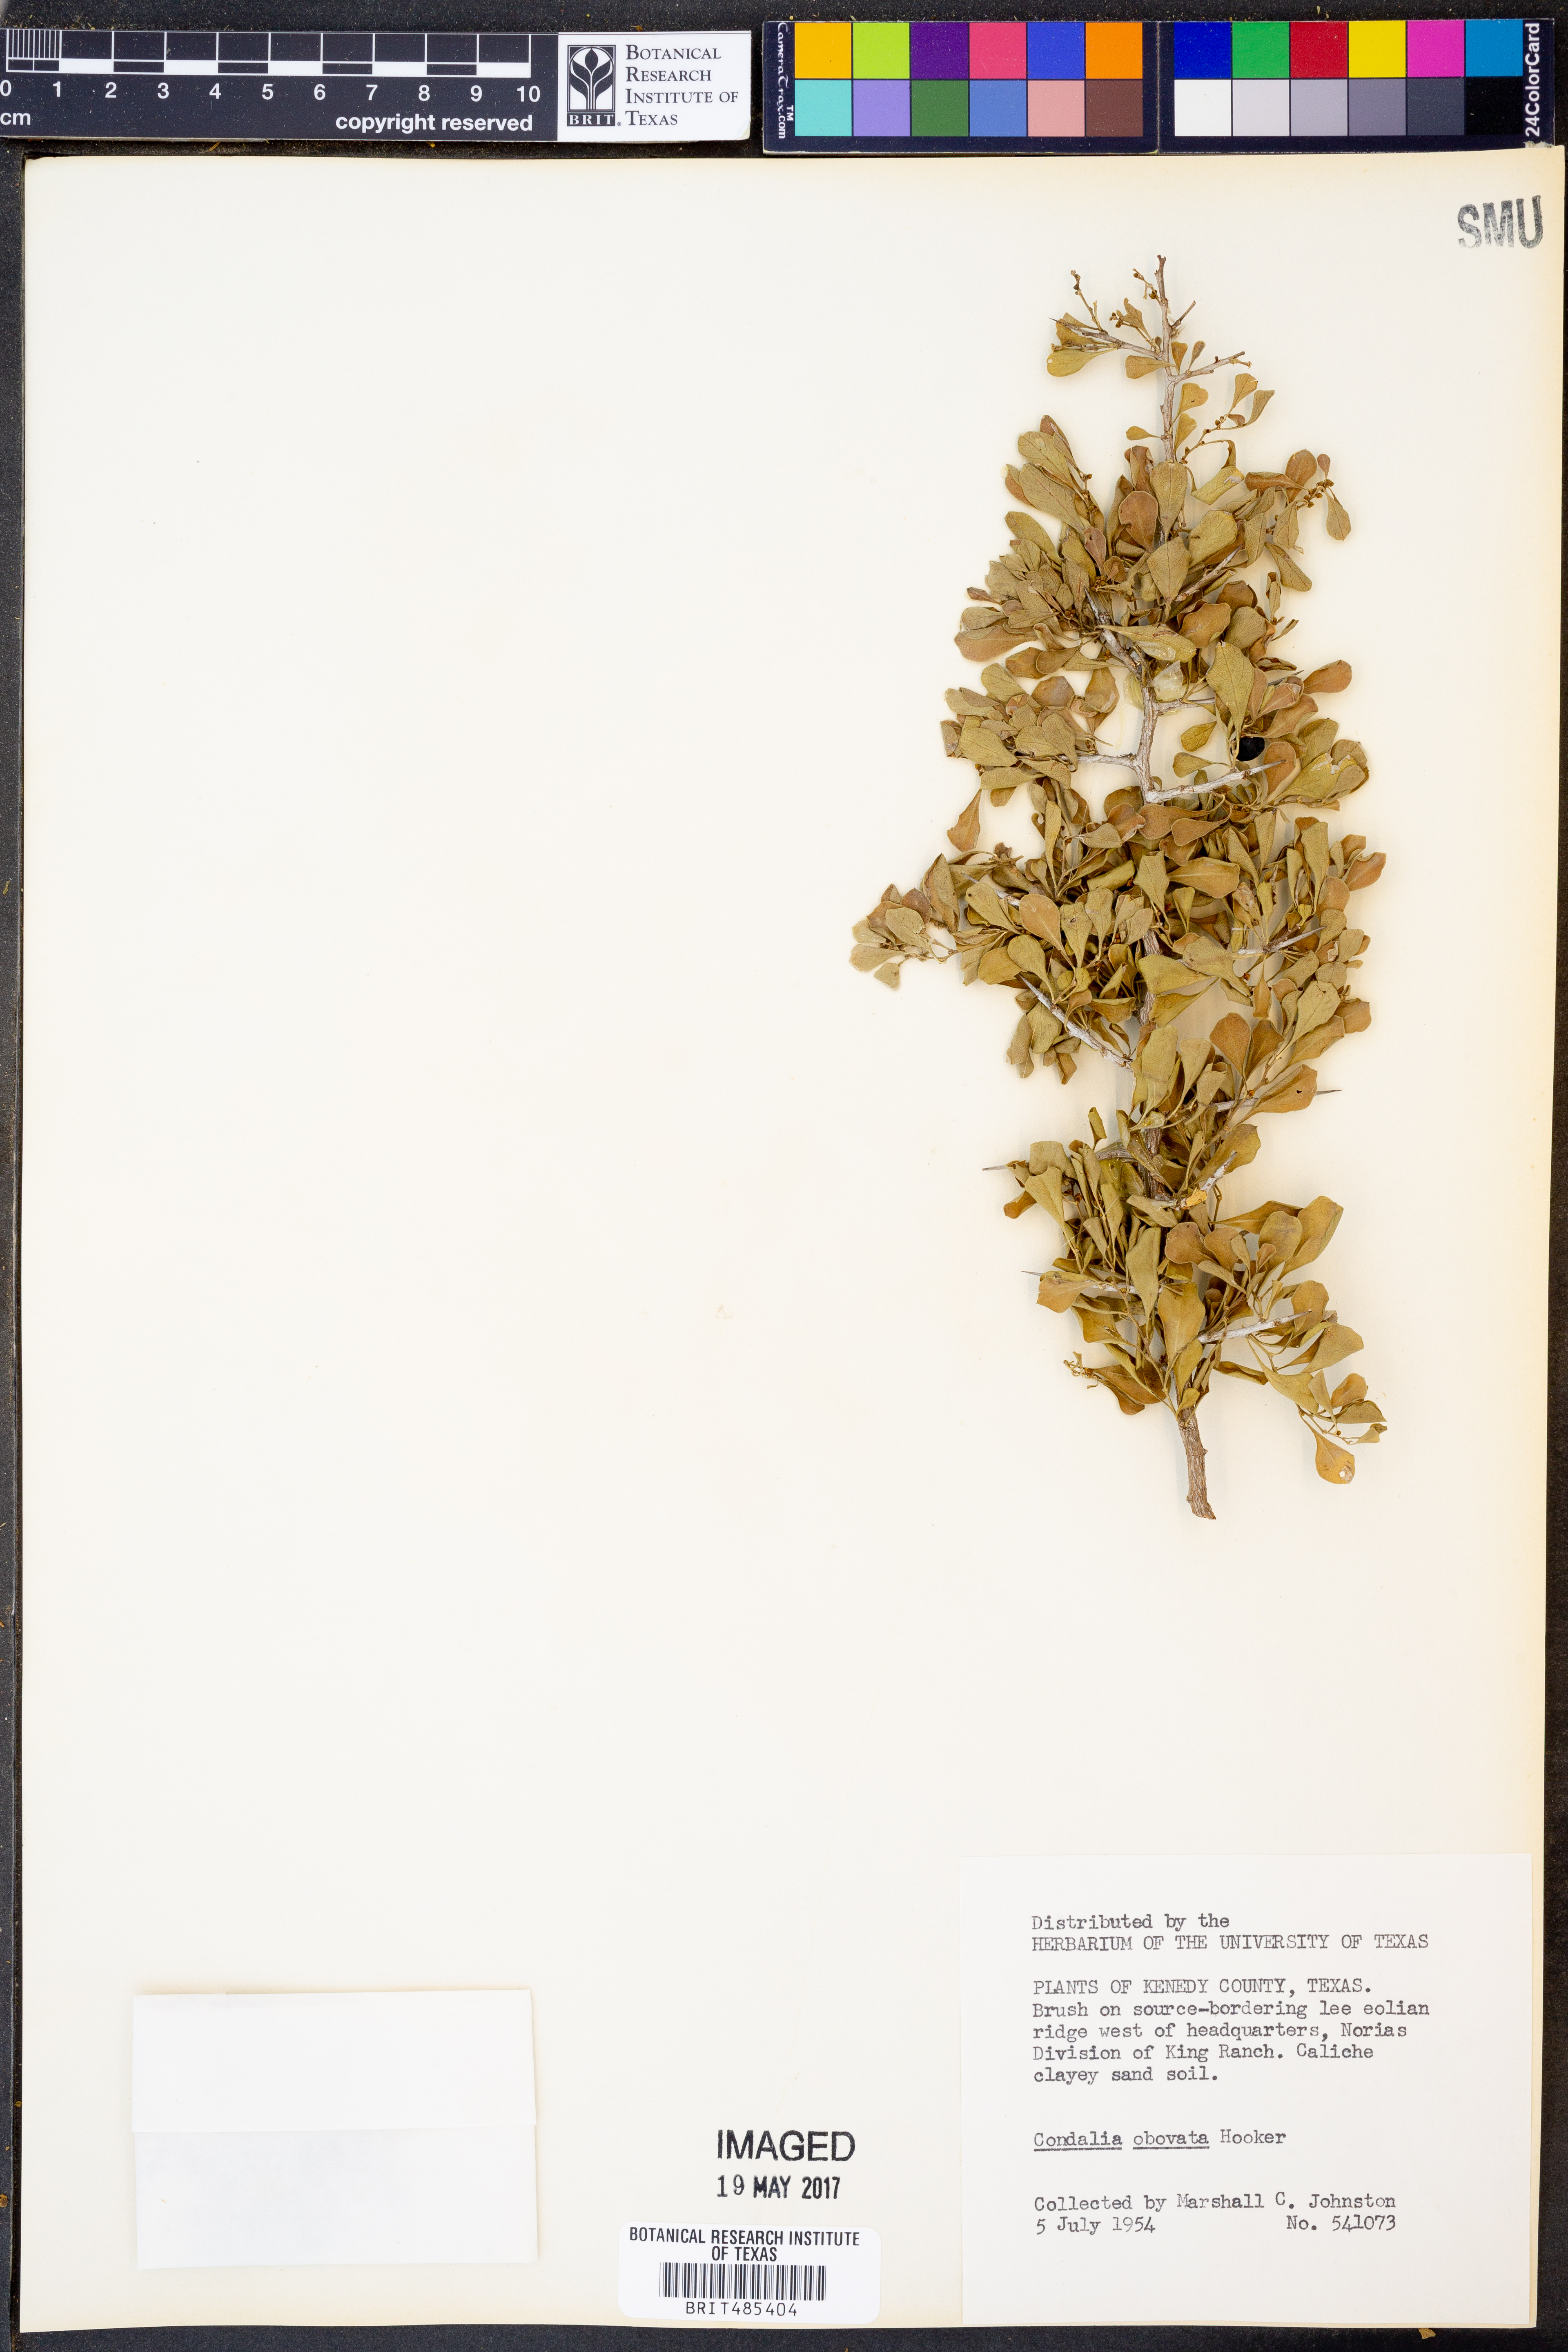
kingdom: Plantae
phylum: Tracheophyta
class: Magnoliopsida
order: Rosales
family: Rhamnaceae
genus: Condalia
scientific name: Condalia hookeri
